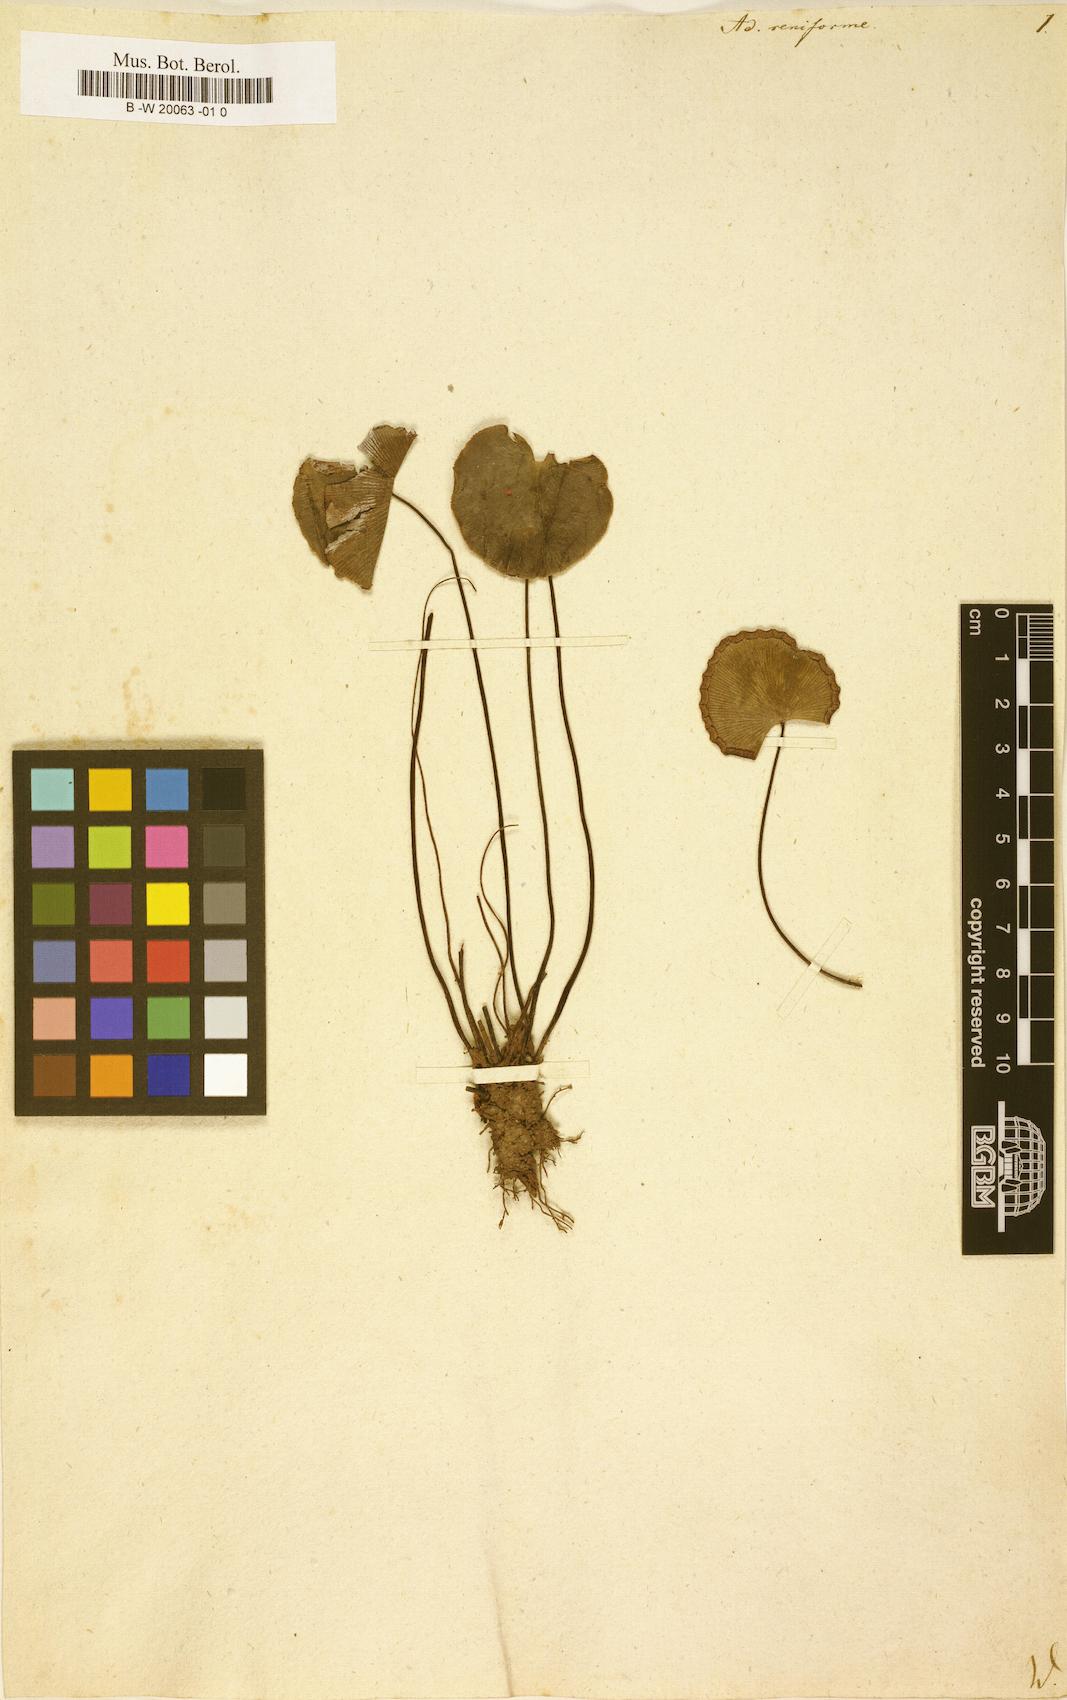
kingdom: Plantae
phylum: Tracheophyta
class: Polypodiopsida
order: Polypodiales
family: Pteridaceae
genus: Adiantum
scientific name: Adiantum reniforme
